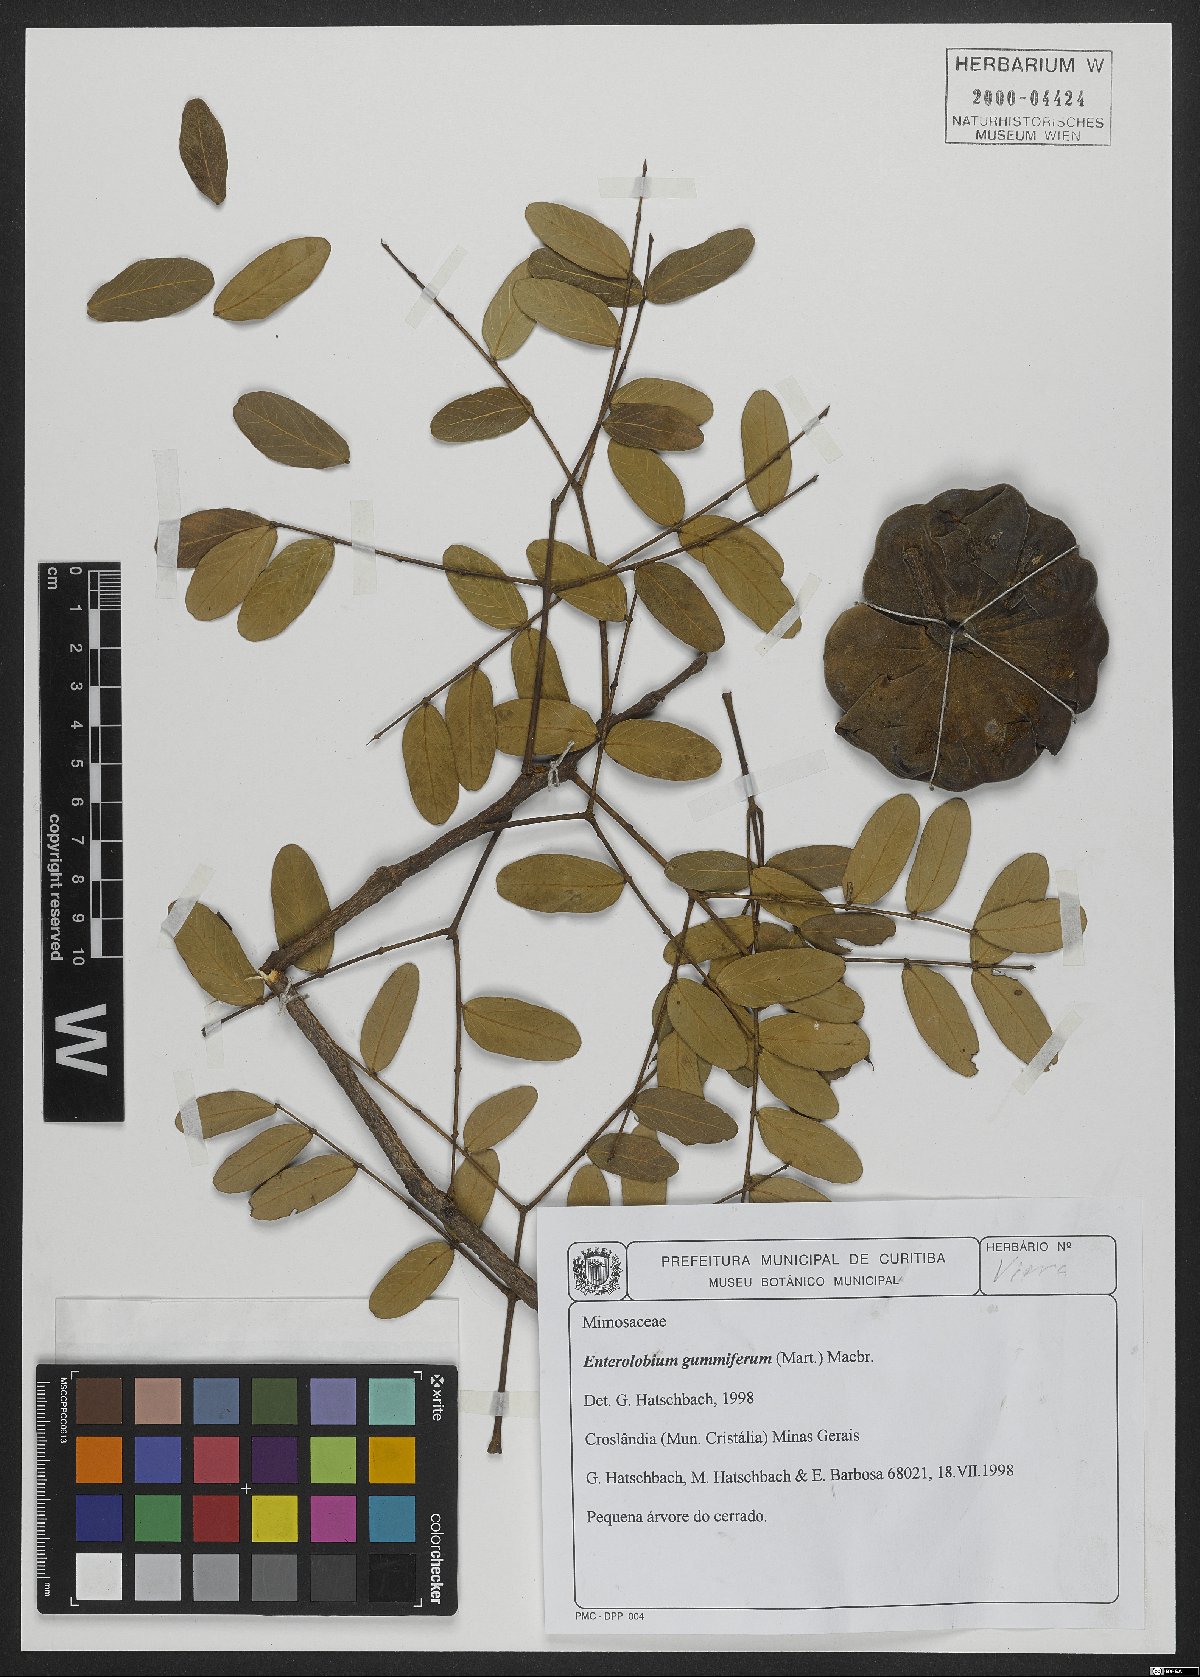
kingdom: Plantae
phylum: Tracheophyta
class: Magnoliopsida
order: Fabales
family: Fabaceae
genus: Enterolobium
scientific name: Enterolobium gummiferum
